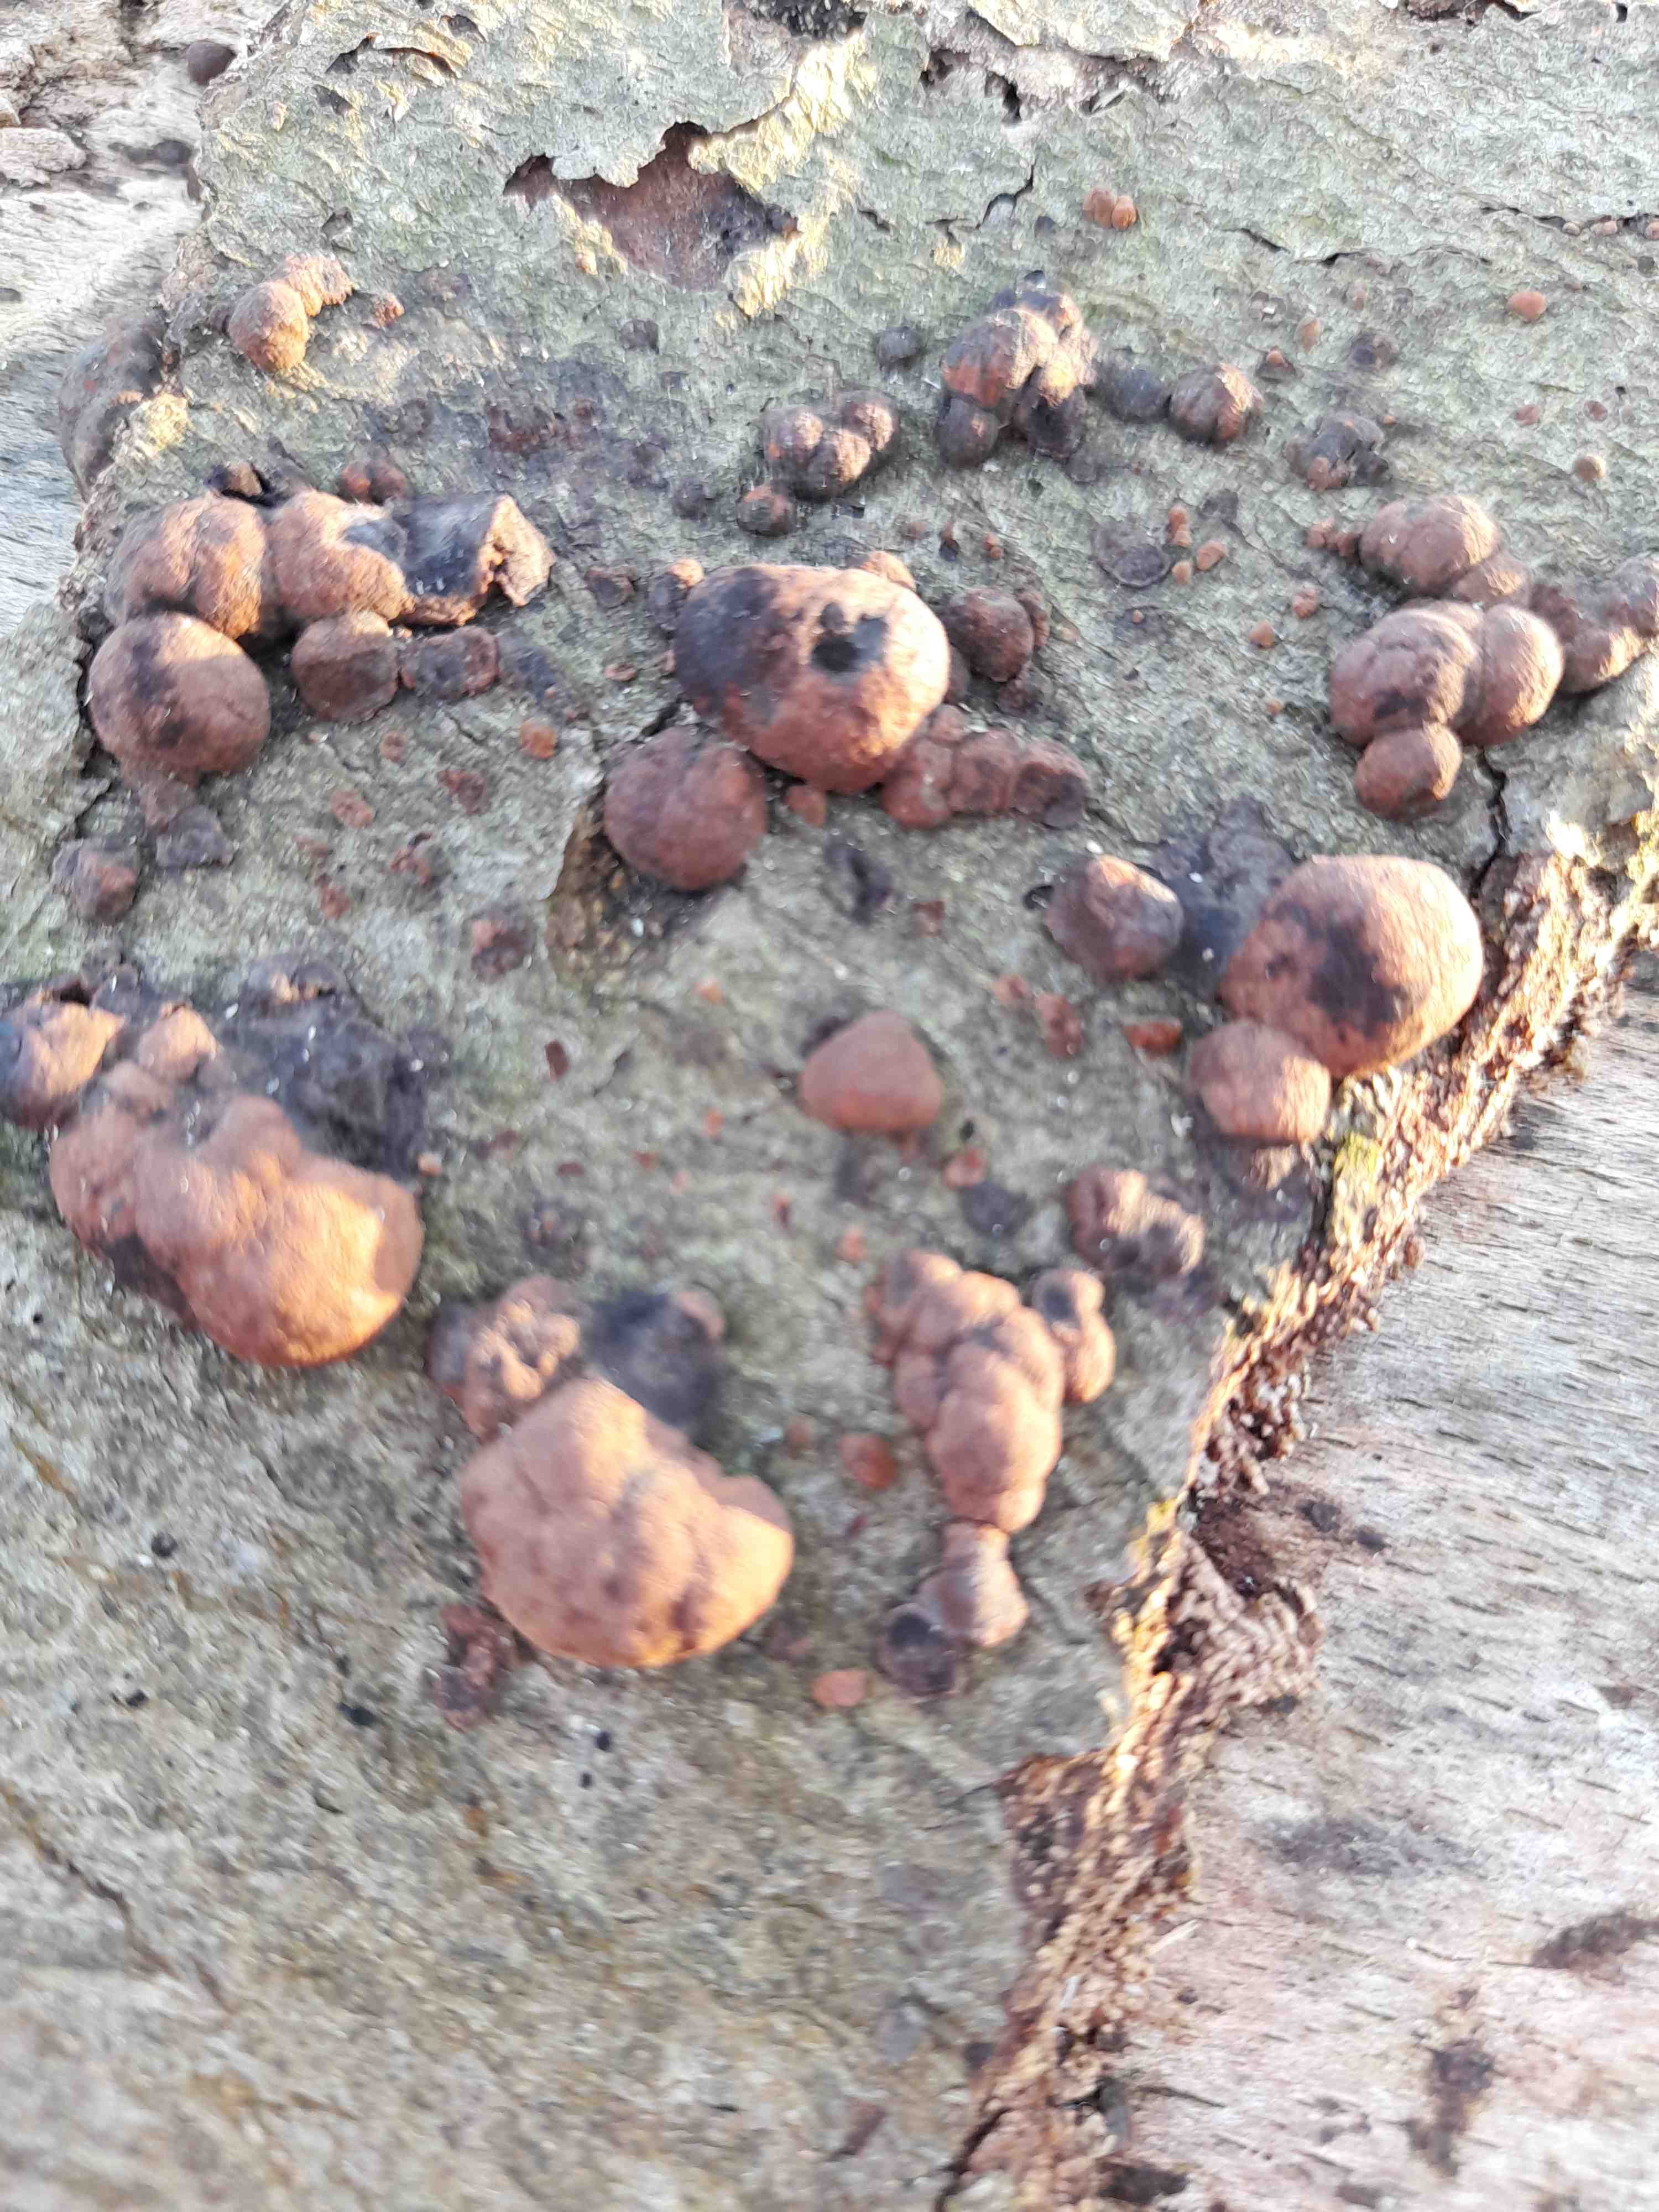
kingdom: Fungi
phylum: Ascomycota
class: Sordariomycetes
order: Xylariales
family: Hypoxylaceae
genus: Hypoxylon
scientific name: Hypoxylon fragiforme
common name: kuljordbær
